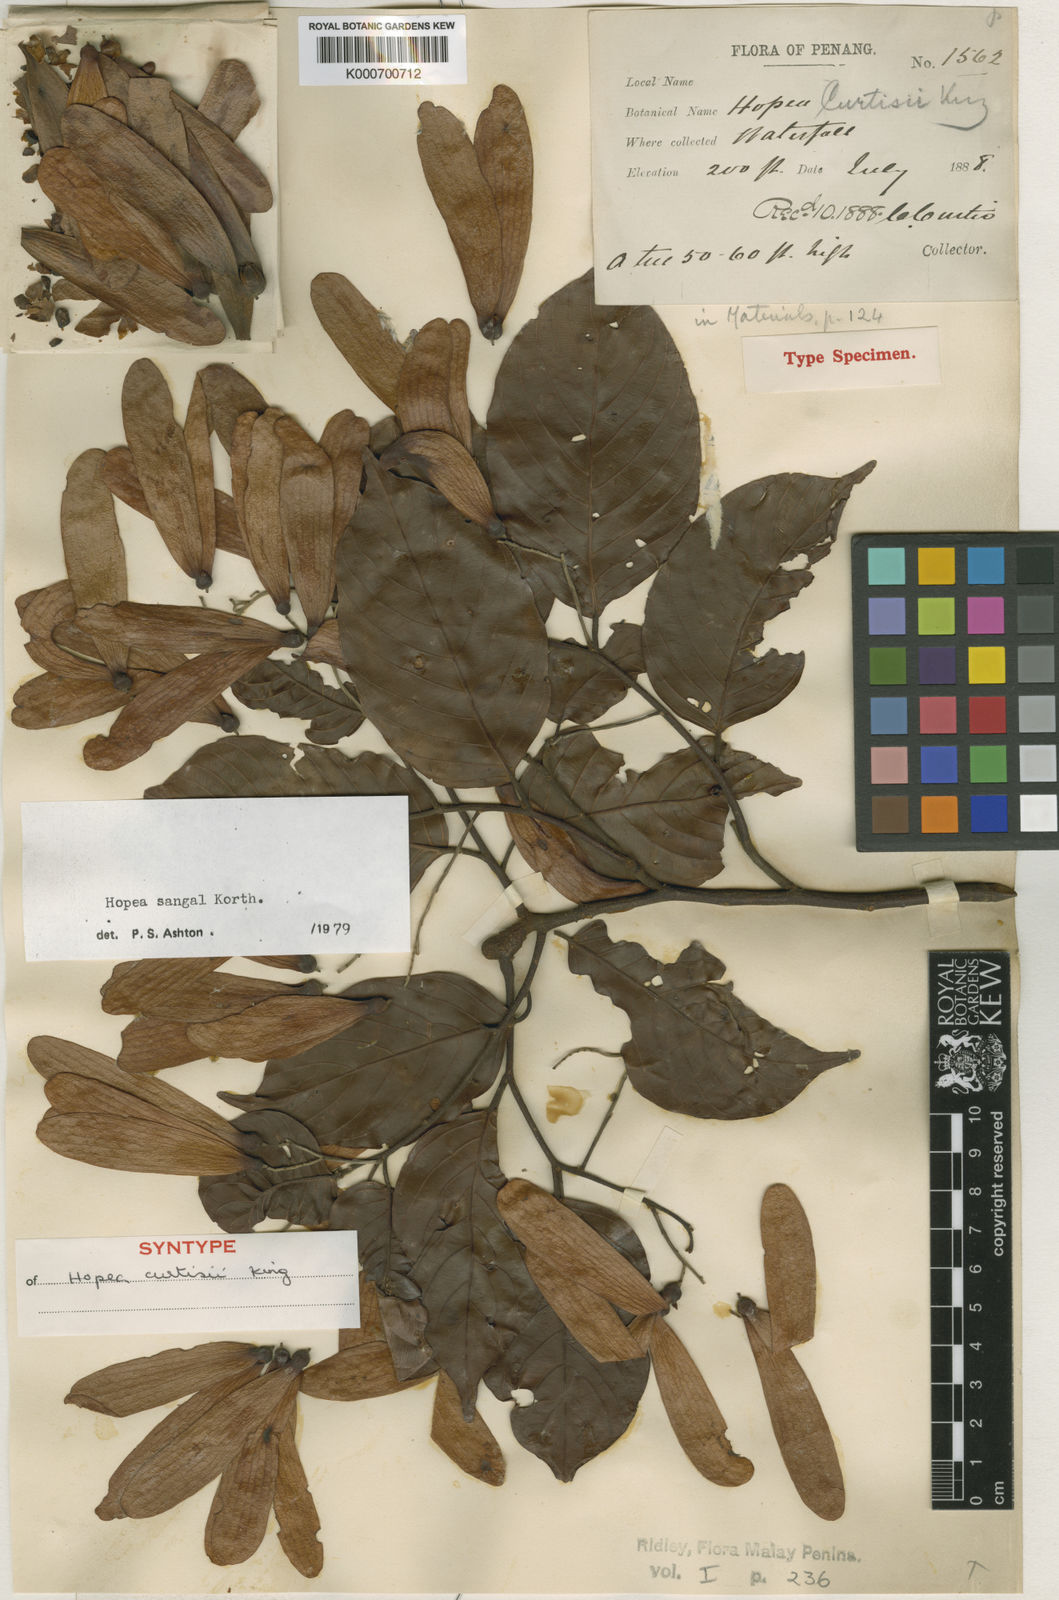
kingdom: Plantae
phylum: Tracheophyta
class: Magnoliopsida
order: Malvales
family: Dipterocarpaceae
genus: Hopea
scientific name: Hopea sangal
